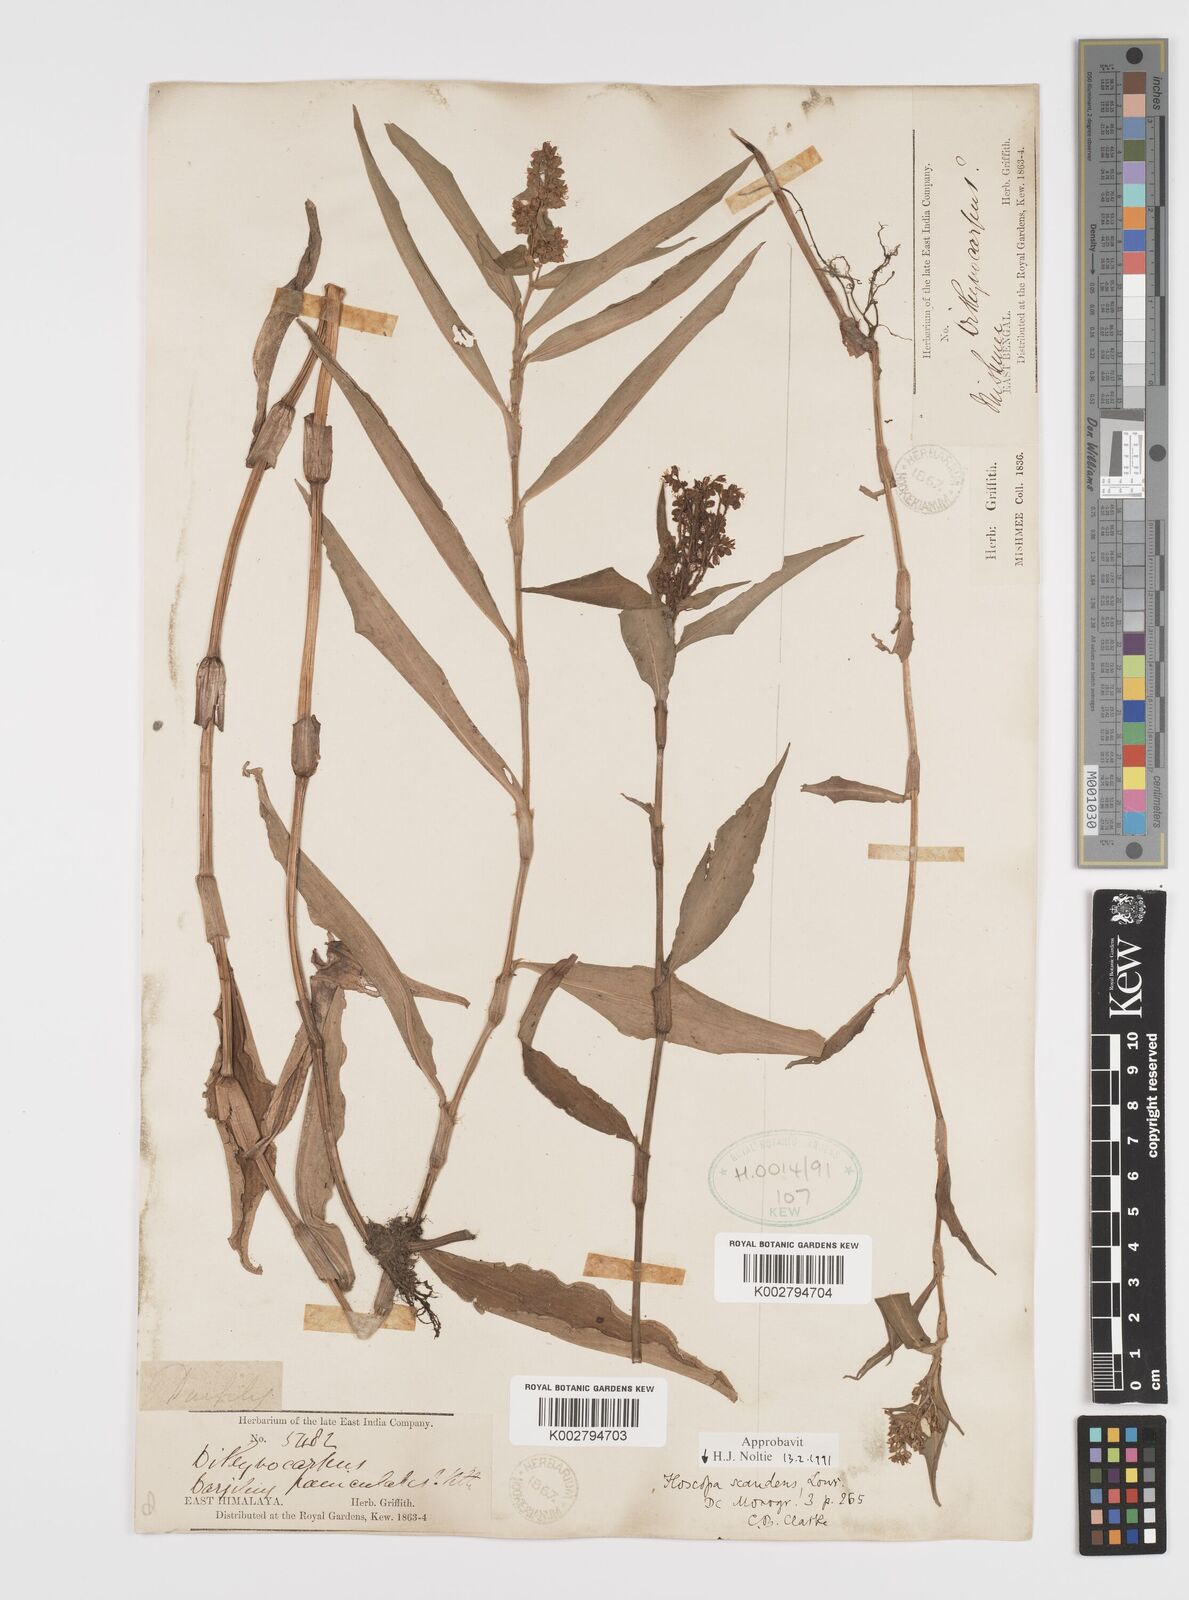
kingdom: Plantae
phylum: Tracheophyta
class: Liliopsida
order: Commelinales
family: Commelinaceae
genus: Floscopa
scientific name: Floscopa scandens
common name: Climbing flower cup
